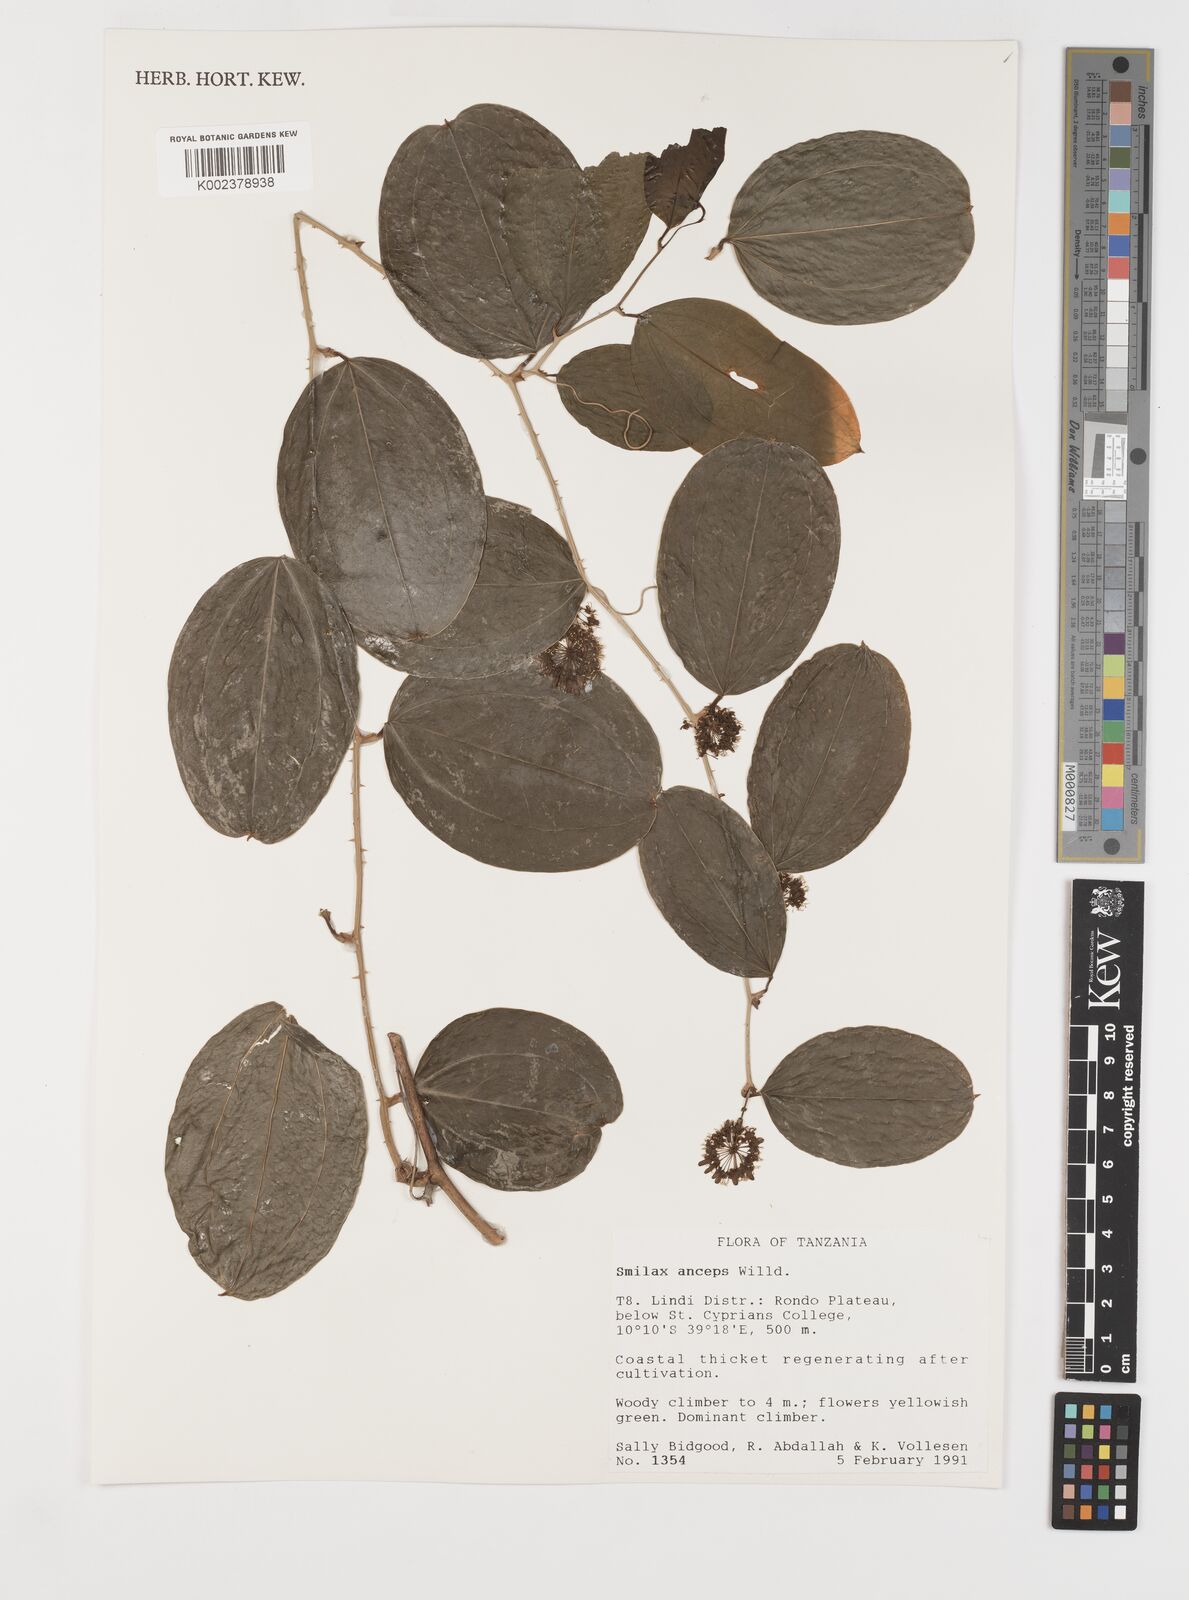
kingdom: Plantae
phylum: Tracheophyta
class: Liliopsida
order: Liliales
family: Smilacaceae
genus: Smilax
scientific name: Smilax anceps
